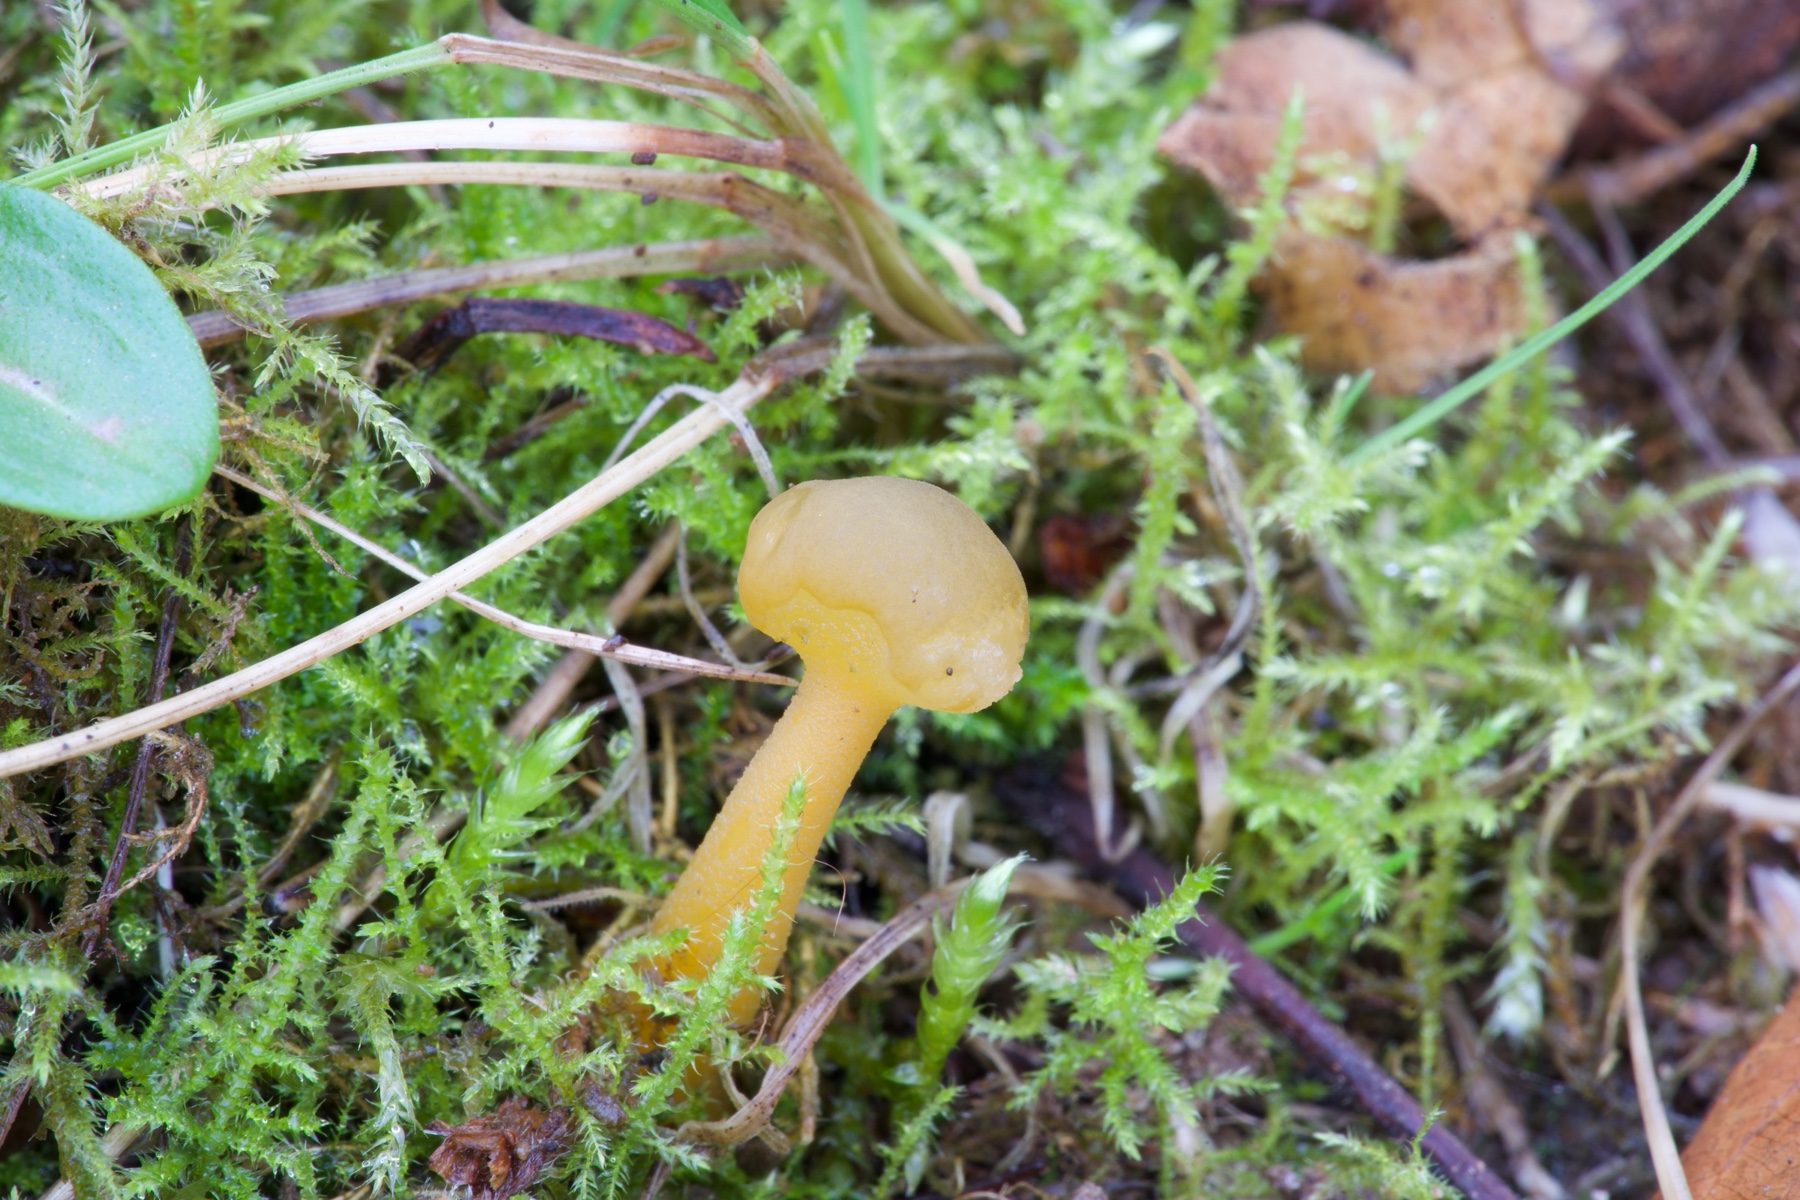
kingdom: Fungi
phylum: Ascomycota
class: Leotiomycetes
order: Leotiales
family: Leotiaceae
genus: Leotia
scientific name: Leotia lubrica
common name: ravsvamp
